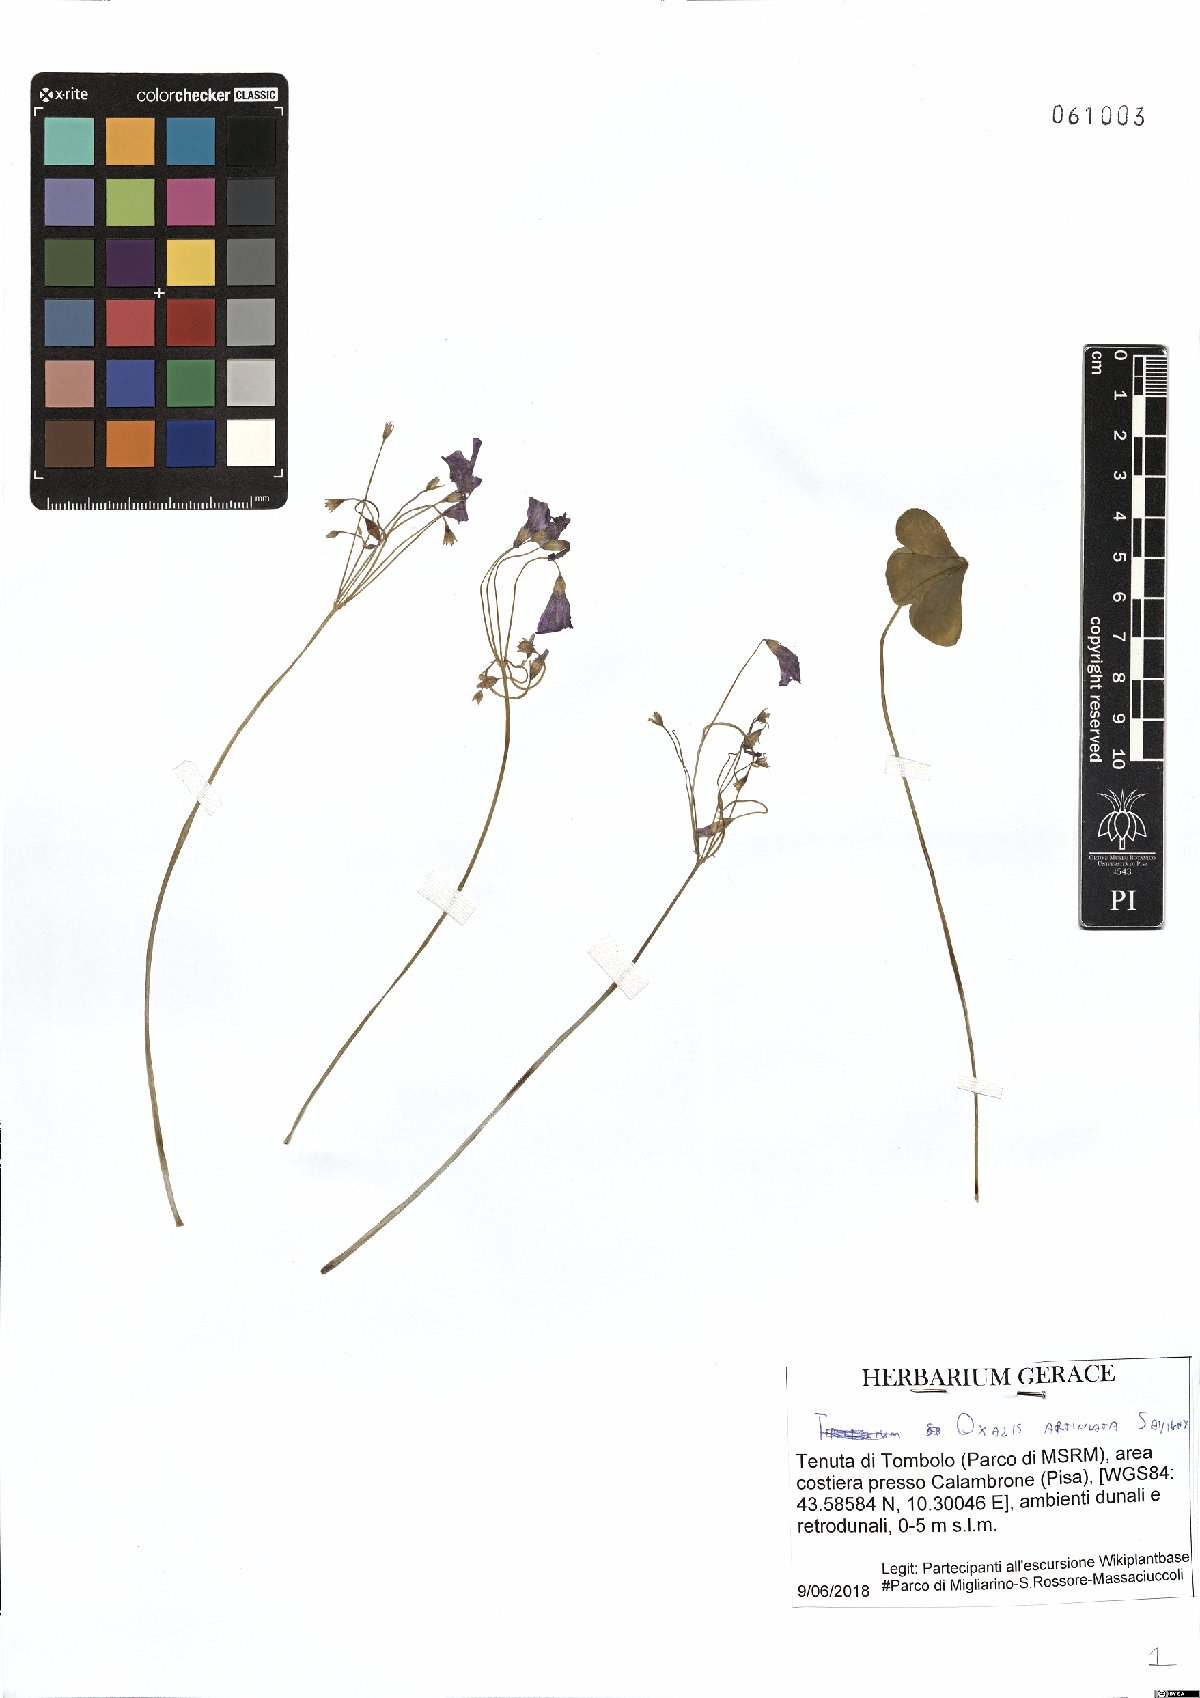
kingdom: Plantae
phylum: Tracheophyta
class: Magnoliopsida
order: Oxalidales
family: Oxalidaceae
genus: Oxalis
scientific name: Oxalis articulata
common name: Pink-sorrel
